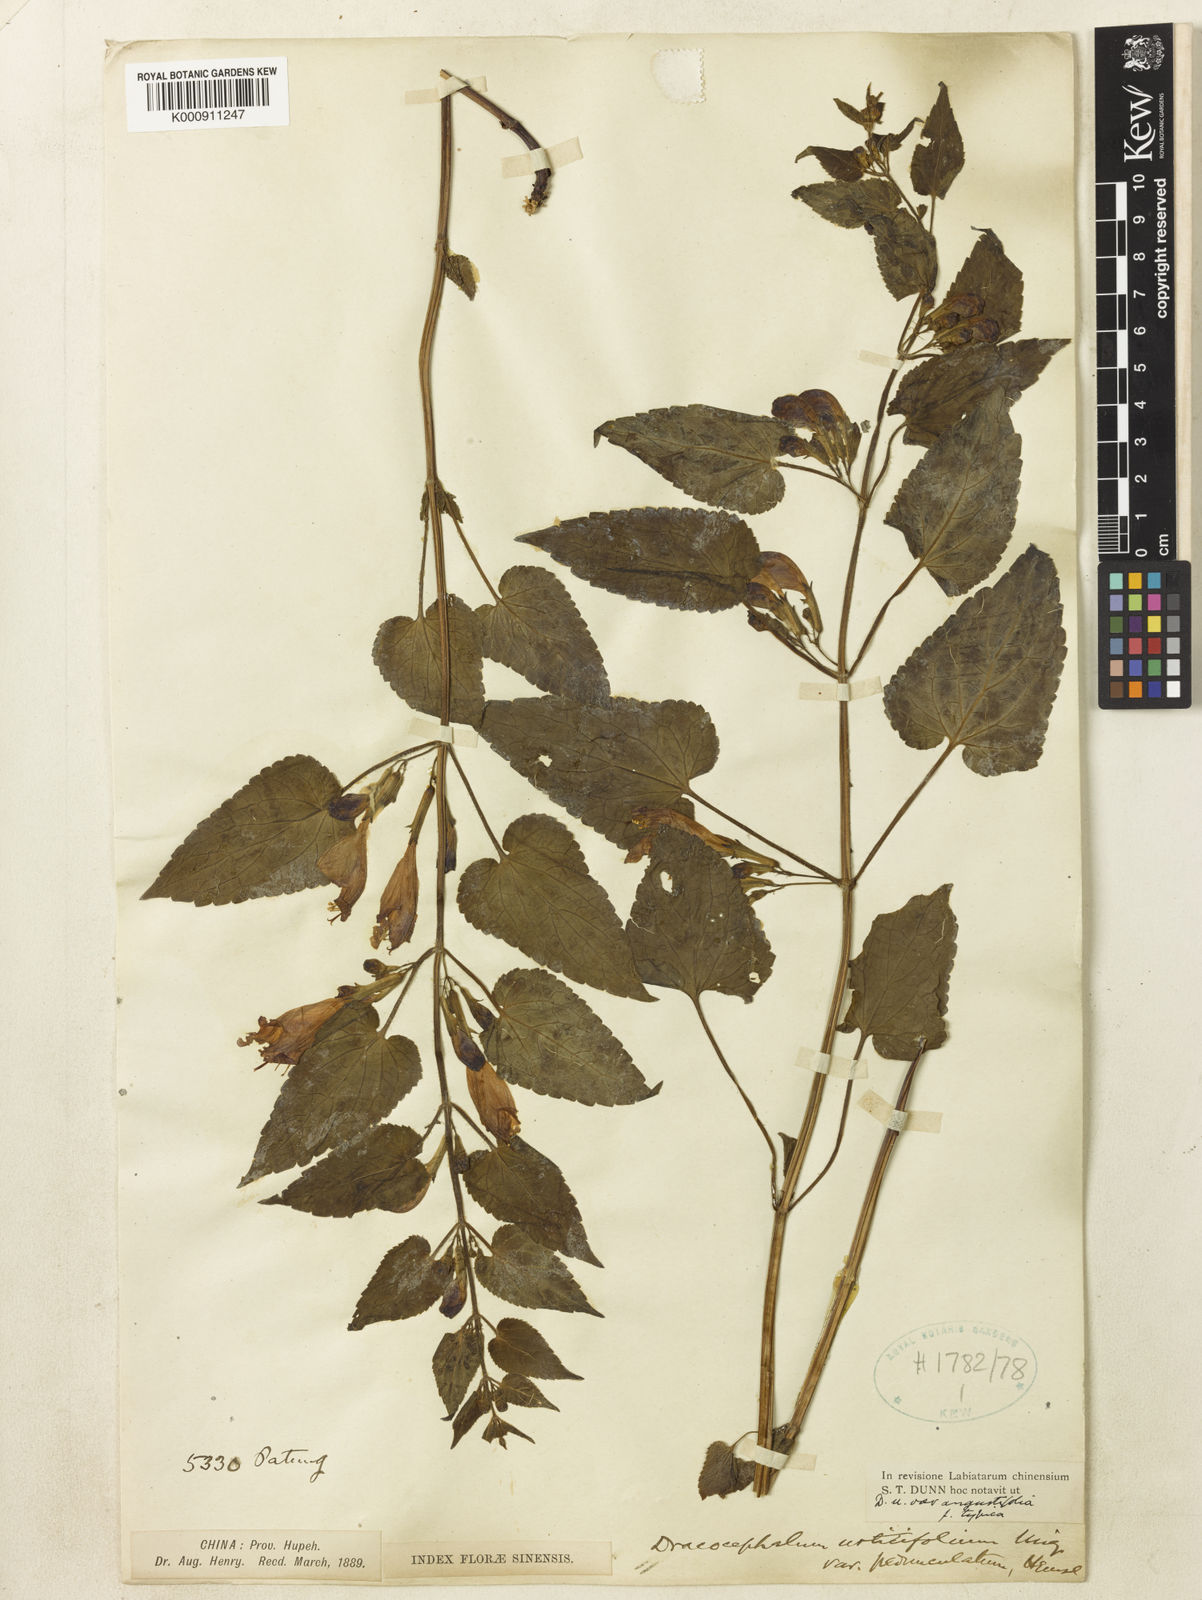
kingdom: Plantae
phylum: Tracheophyta
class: Magnoliopsida
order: Lamiales
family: Lamiaceae
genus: Meehania
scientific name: Meehania urticifolia
